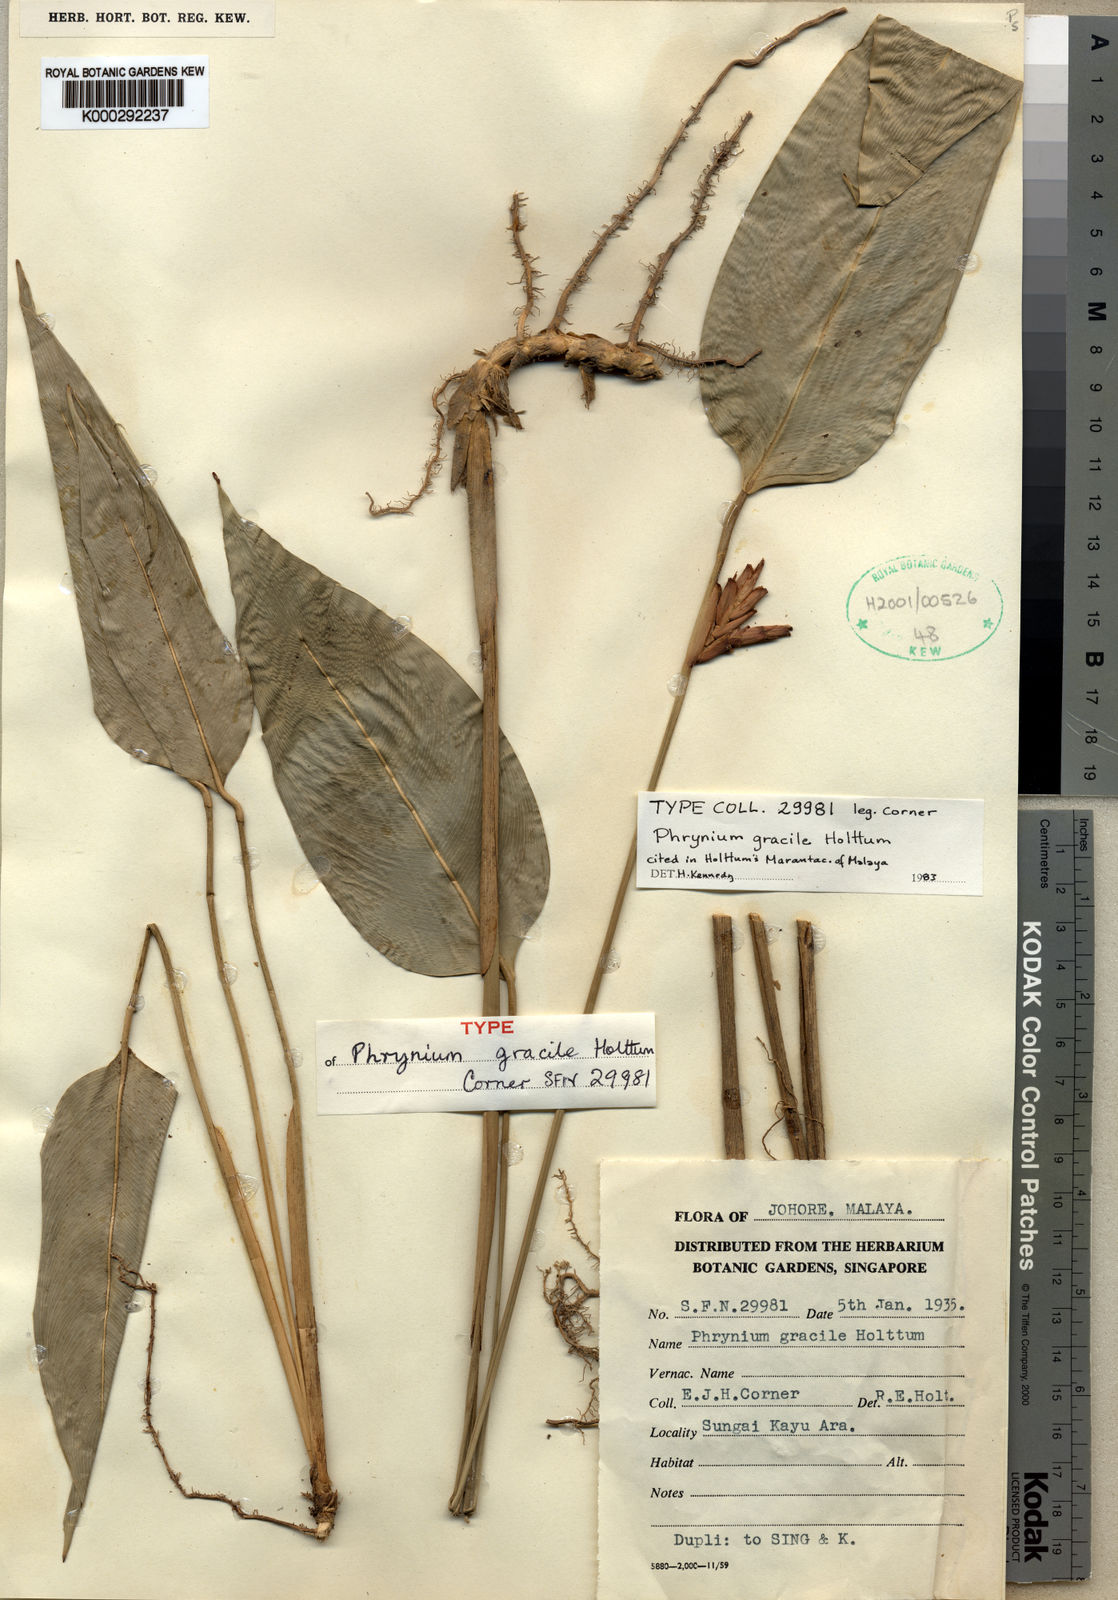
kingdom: Plantae
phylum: Tracheophyta
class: Liliopsida
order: Zingiberales
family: Marantaceae
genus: Phrynium
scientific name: Phrynium venustum
